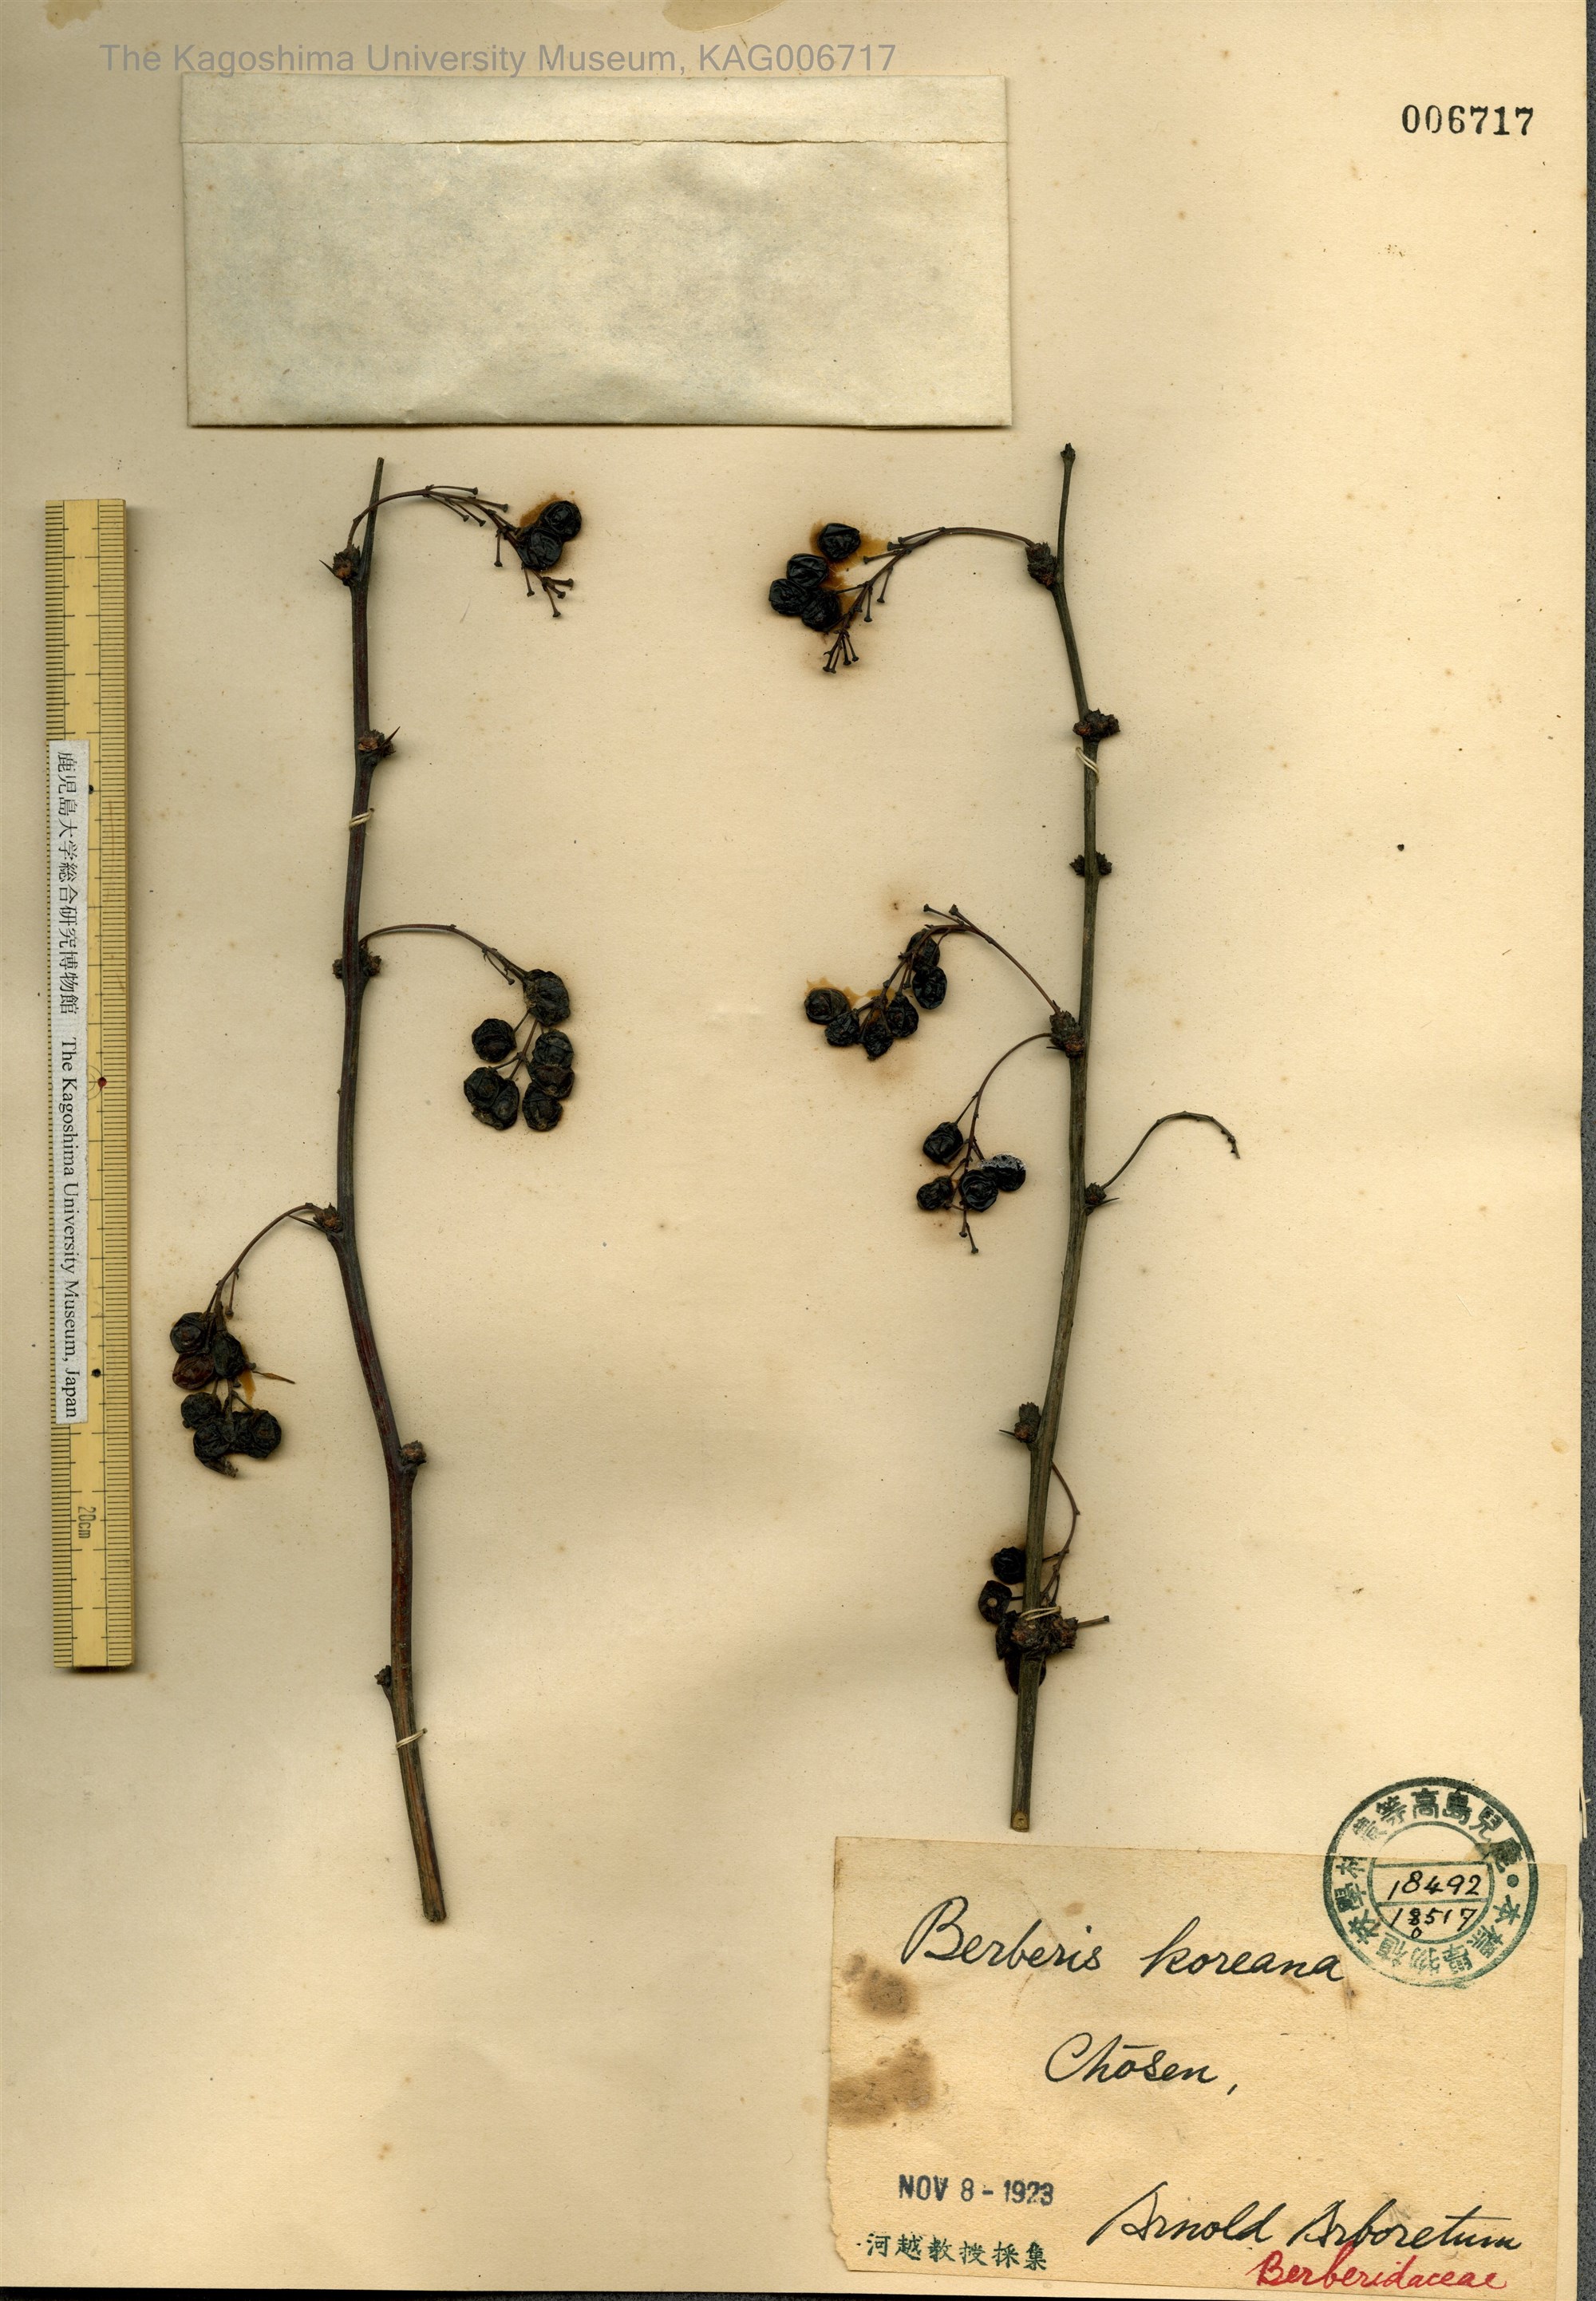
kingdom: Plantae
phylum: Tracheophyta
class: Magnoliopsida
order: Ranunculales
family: Berberidaceae
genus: Berberis
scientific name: Berberis koreana
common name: Barberry
